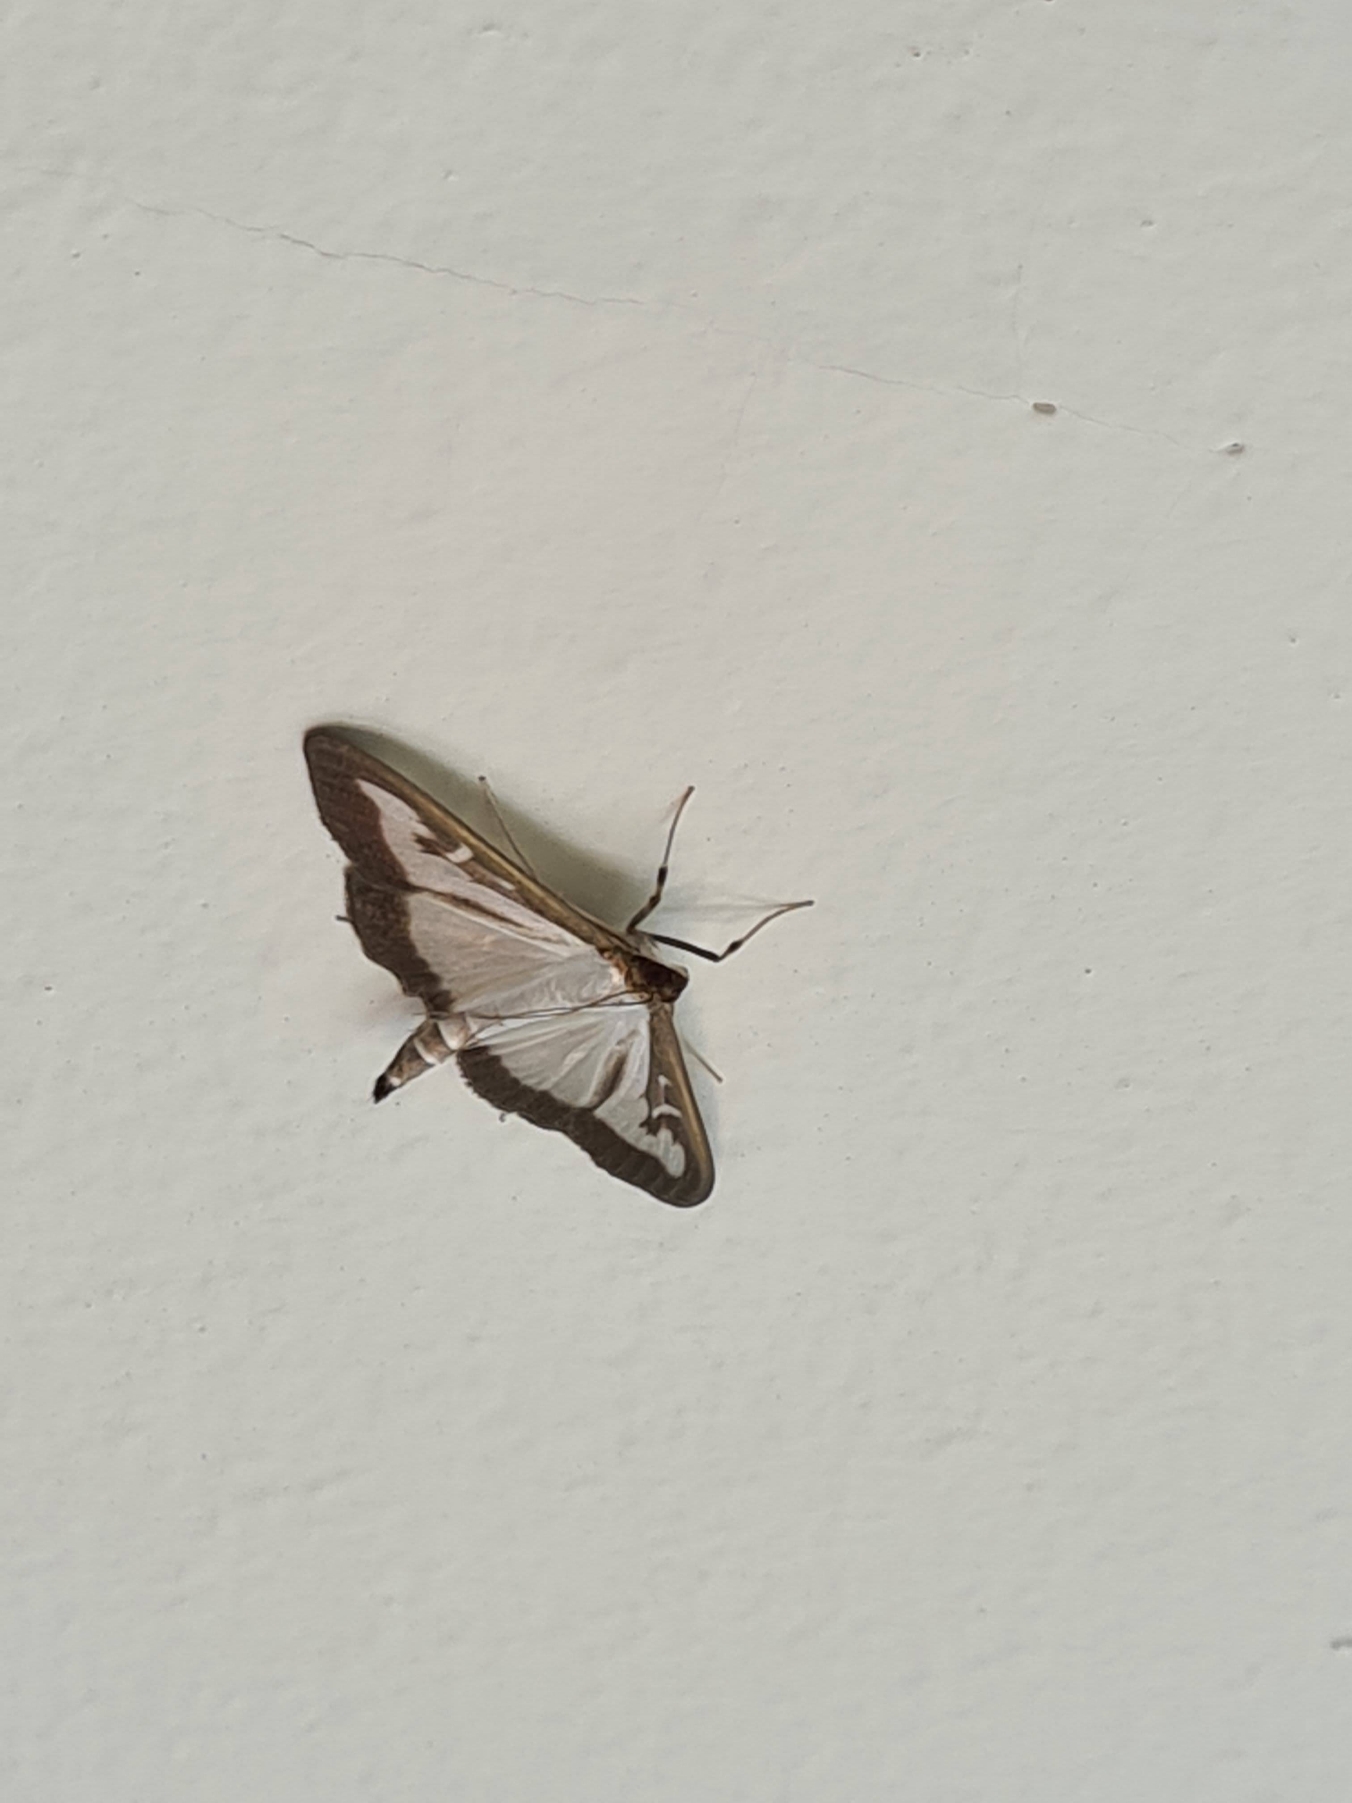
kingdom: Animalia
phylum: Arthropoda
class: Insecta
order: Lepidoptera
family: Crambidae
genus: Cydalima
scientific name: Cydalima perspectalis
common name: Buksbomhalvmøl
